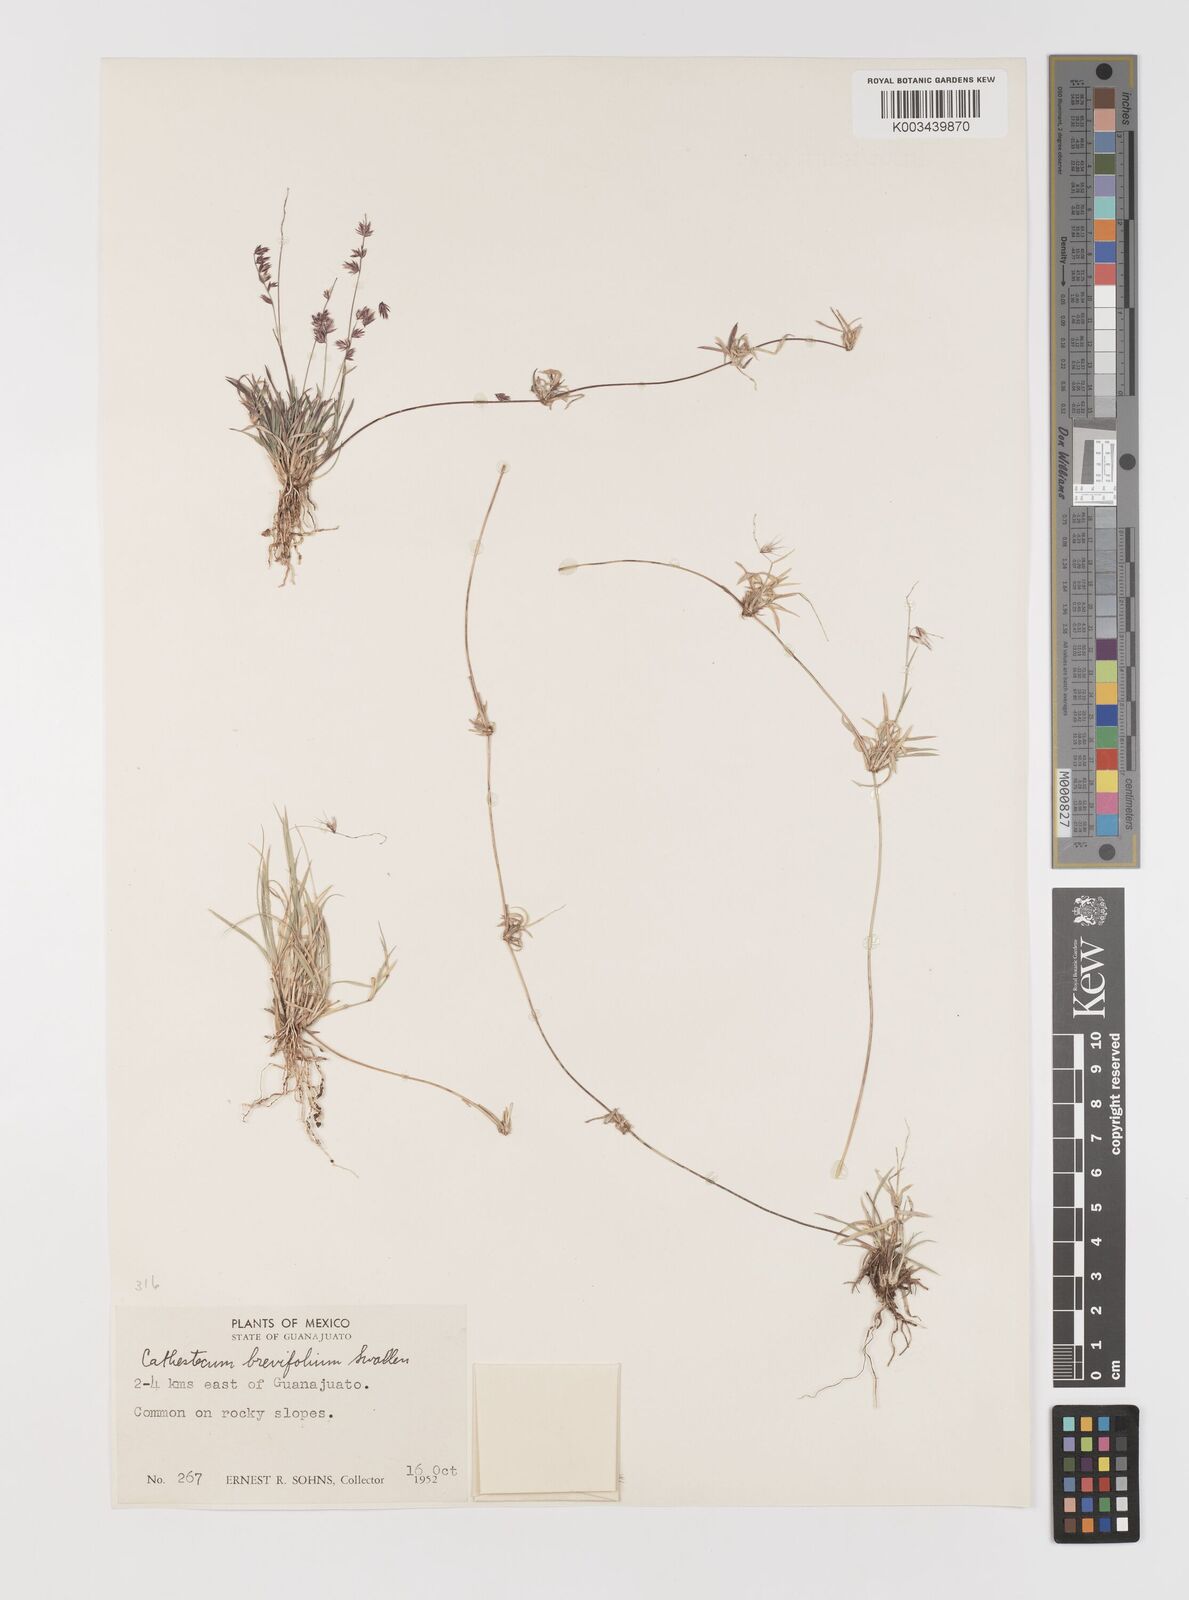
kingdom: Plantae
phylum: Tracheophyta
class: Liliopsida
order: Poales
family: Poaceae
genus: Bouteloua
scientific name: Bouteloua diversispicula
